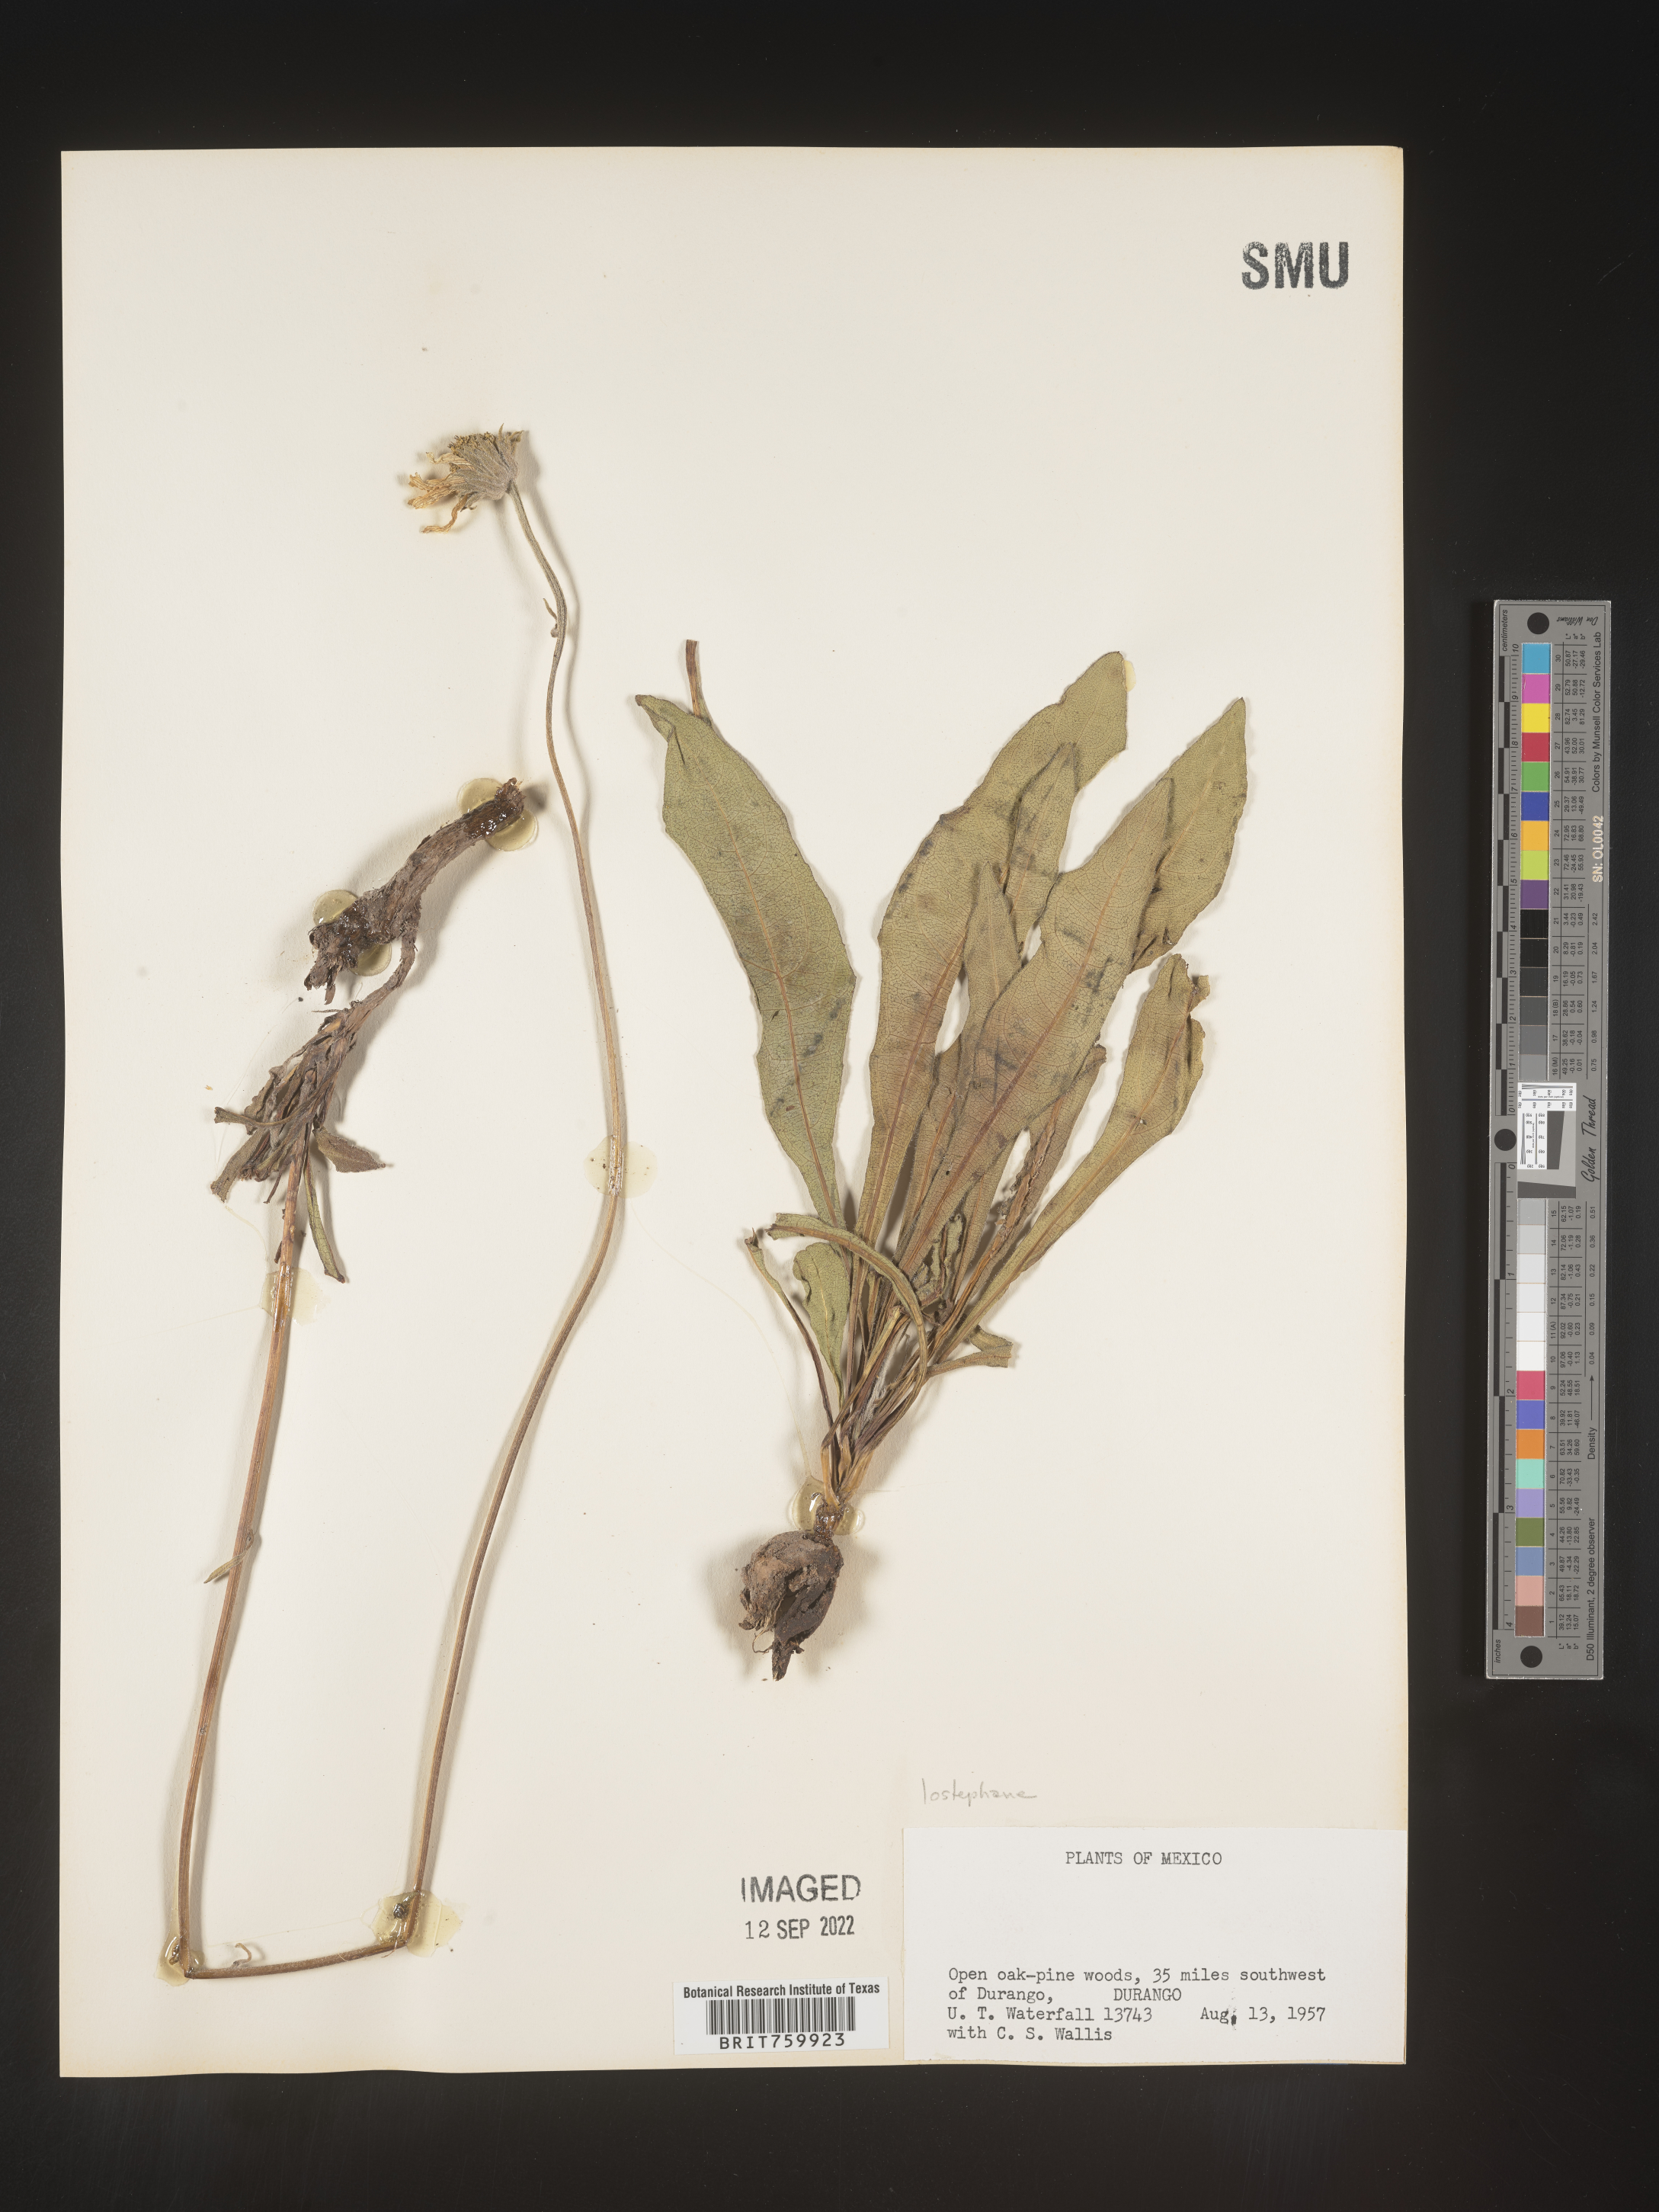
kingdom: Plantae
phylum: Tracheophyta
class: Magnoliopsida
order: Asterales
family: Asteraceae
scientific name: Asteraceae
